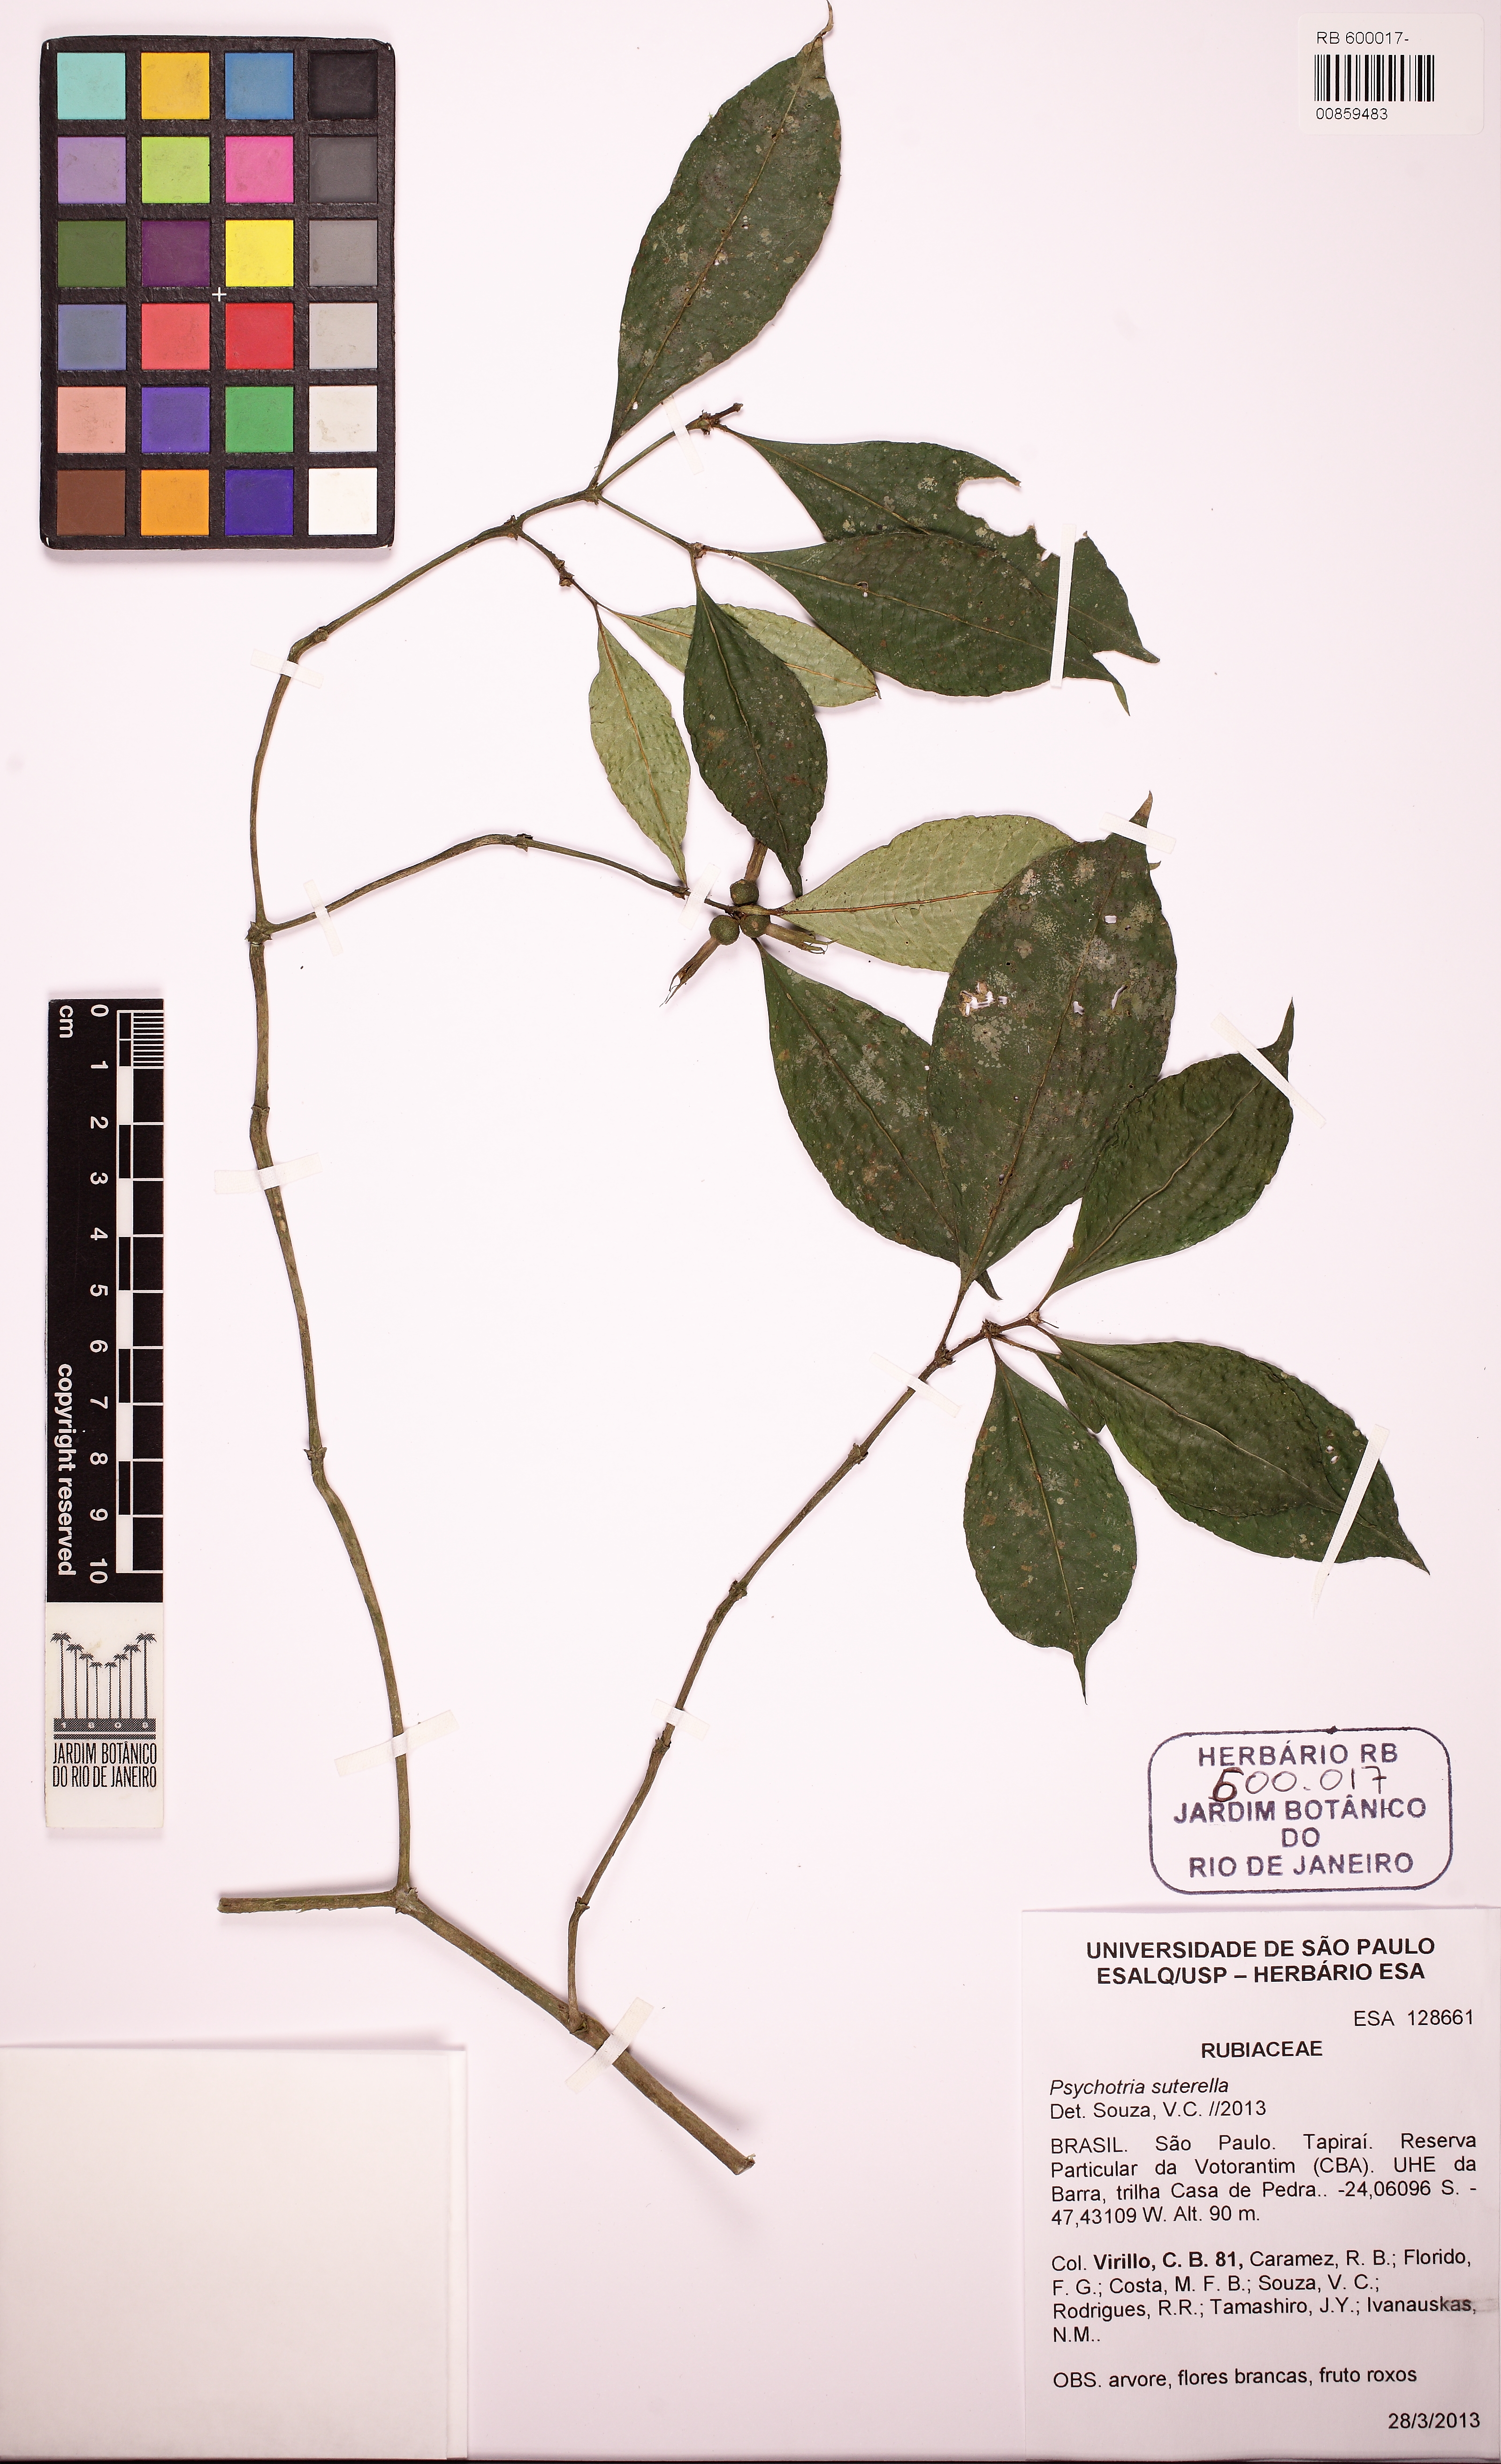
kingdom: Plantae
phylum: Tracheophyta
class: Magnoliopsida
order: Gentianales
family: Rubiaceae
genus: Psychotria
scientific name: Psychotria suterella
